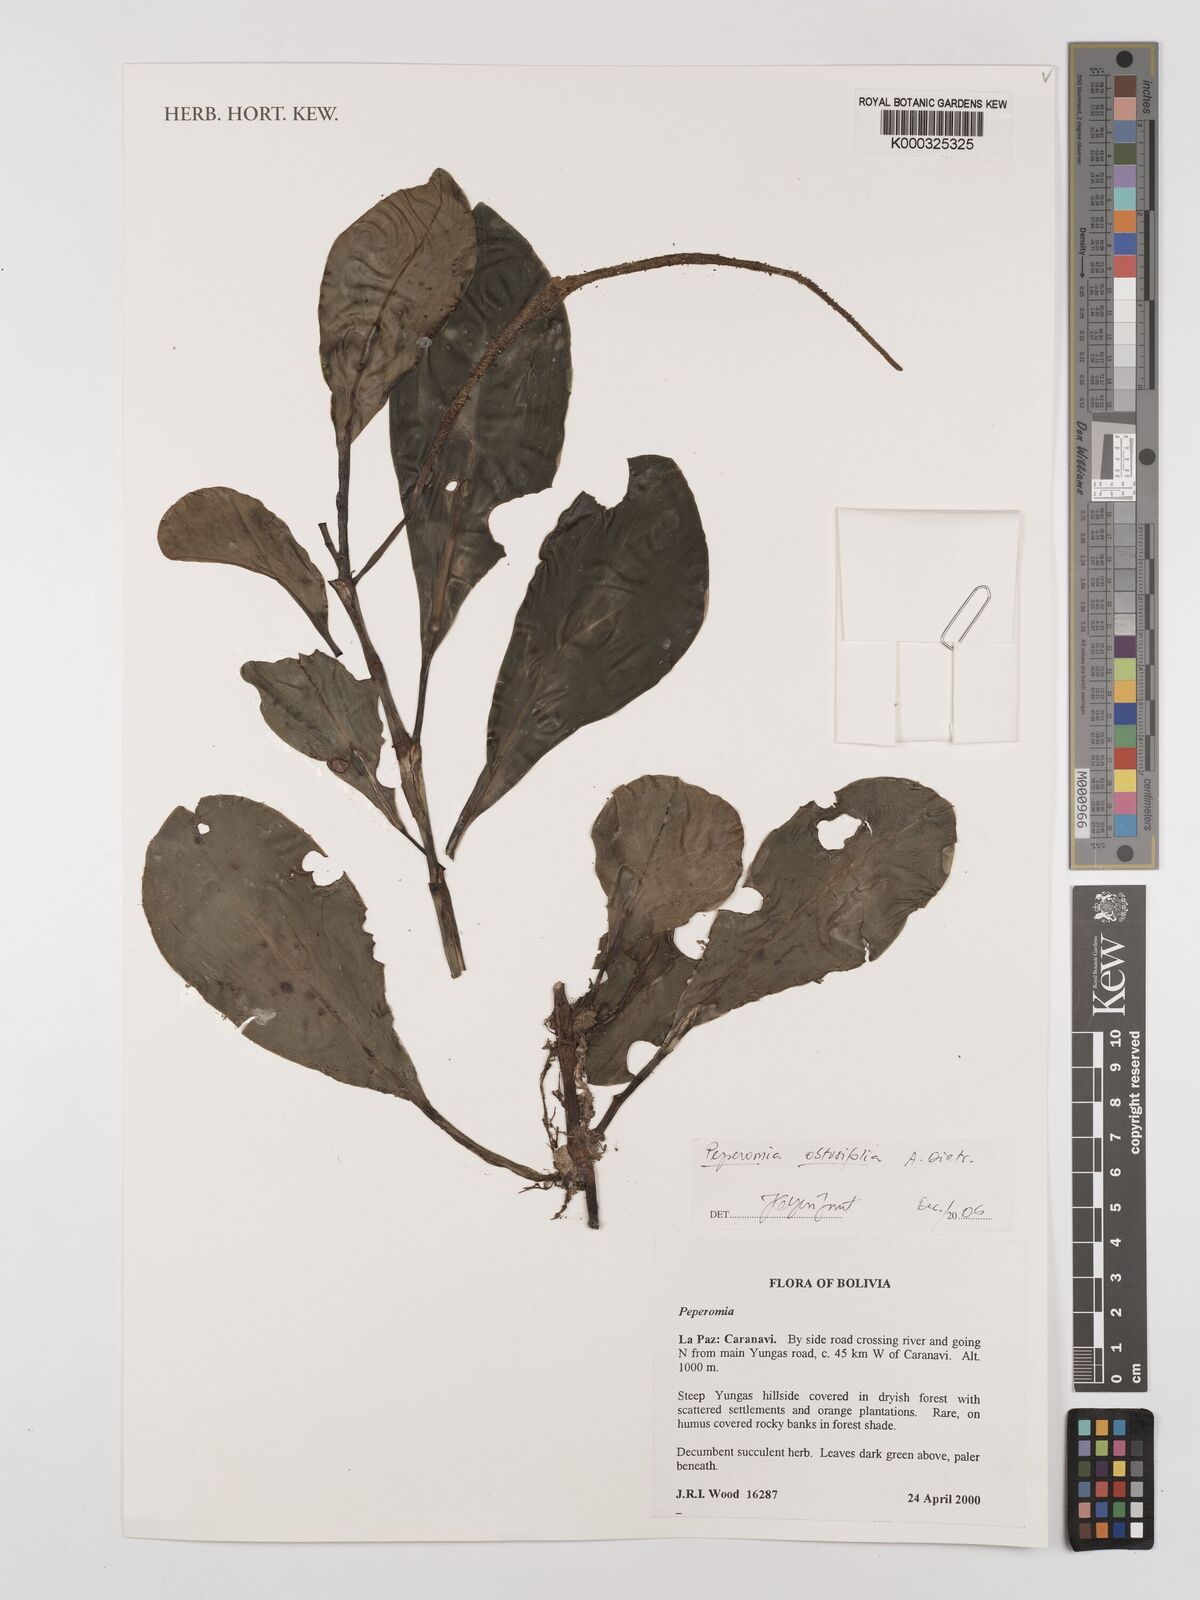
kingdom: Plantae
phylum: Tracheophyta
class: Magnoliopsida
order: Piperales
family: Piperaceae
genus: Peperomia
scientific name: Peperomia obtusifolia
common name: Baby rubberplant
